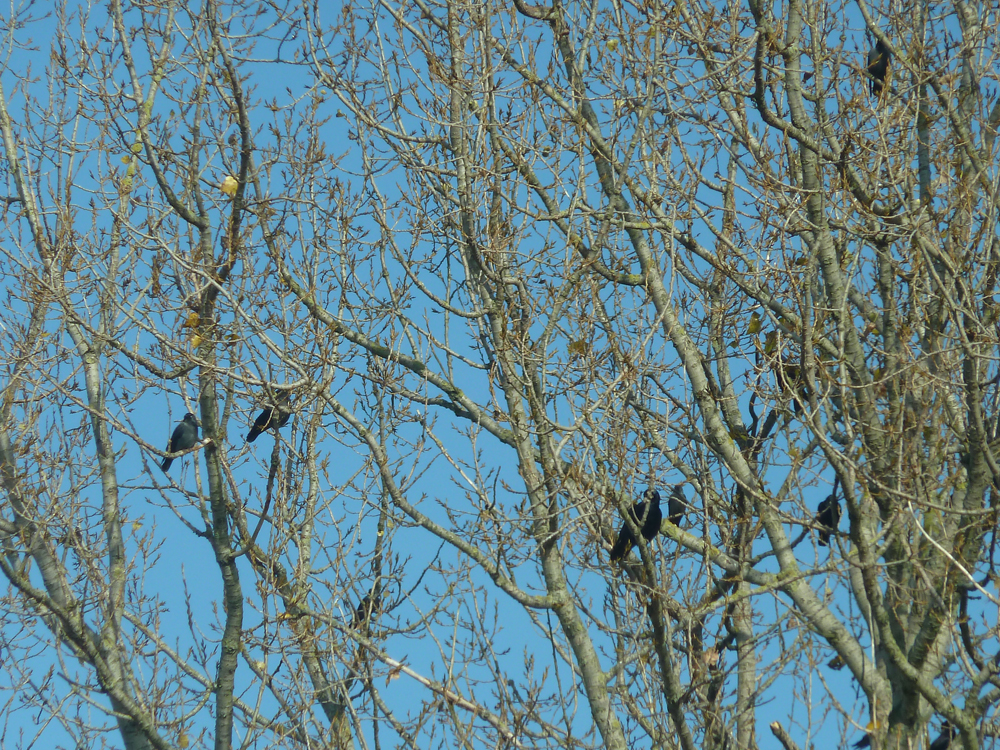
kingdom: Animalia
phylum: Chordata
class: Aves
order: Passeriformes
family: Corvidae
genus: Coloeus
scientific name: Coloeus monedula
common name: Western jackdaw
